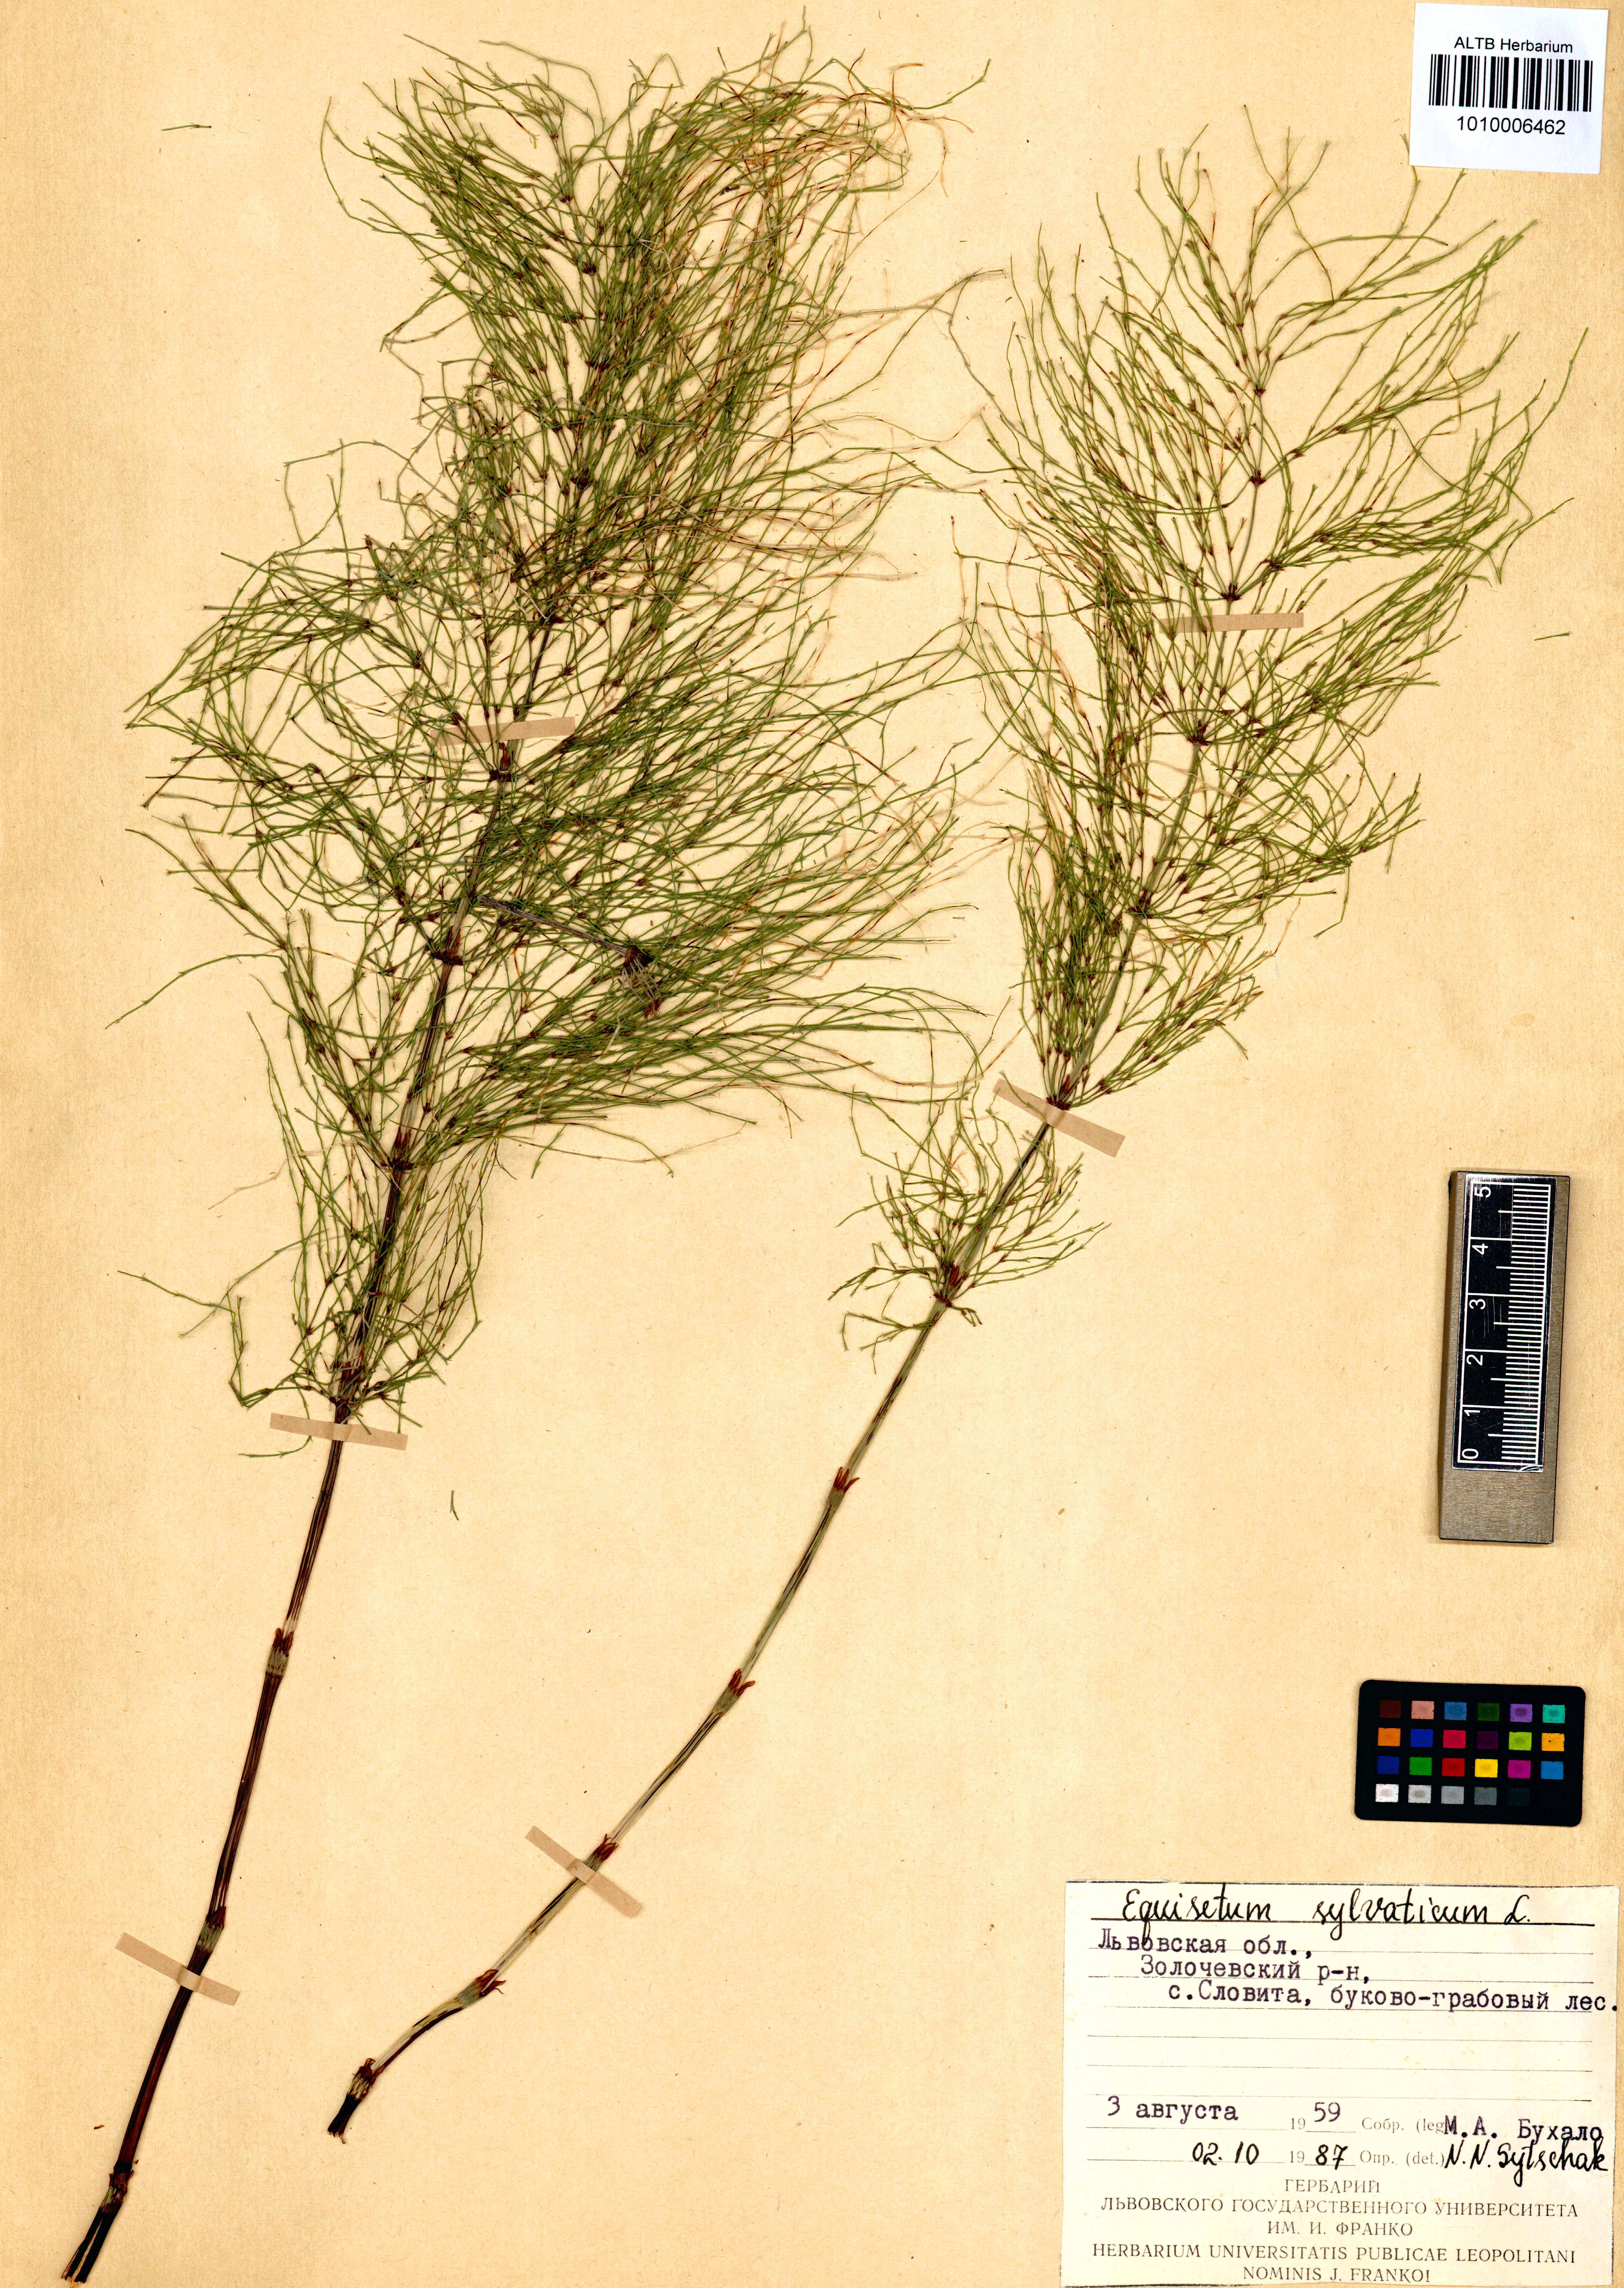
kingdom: Plantae
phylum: Tracheophyta
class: Polypodiopsida
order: Equisetales
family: Equisetaceae
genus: Equisetum
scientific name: Equisetum sylvaticum
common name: Wood horsetail
